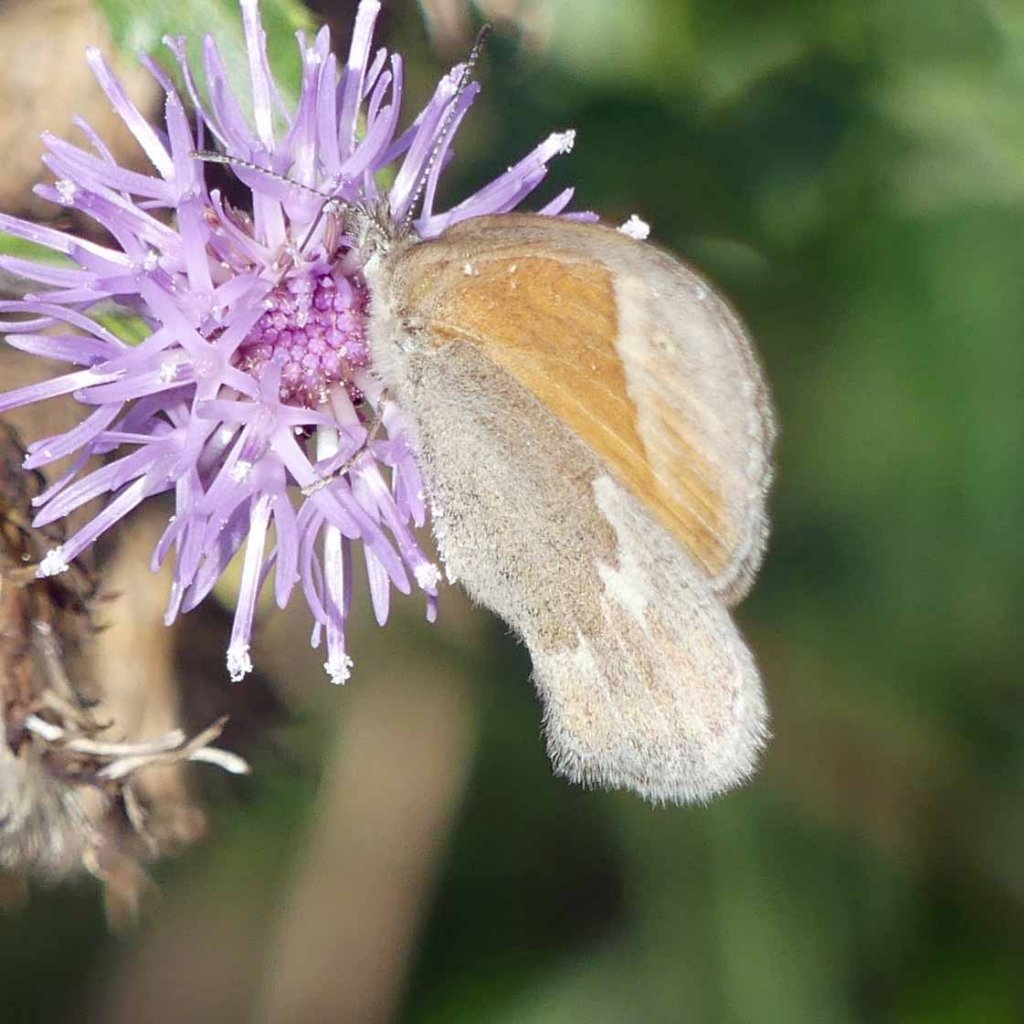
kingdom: Animalia
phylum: Arthropoda
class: Insecta
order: Lepidoptera
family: Nymphalidae
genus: Coenonympha
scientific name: Coenonympha tullia
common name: Large Heath
